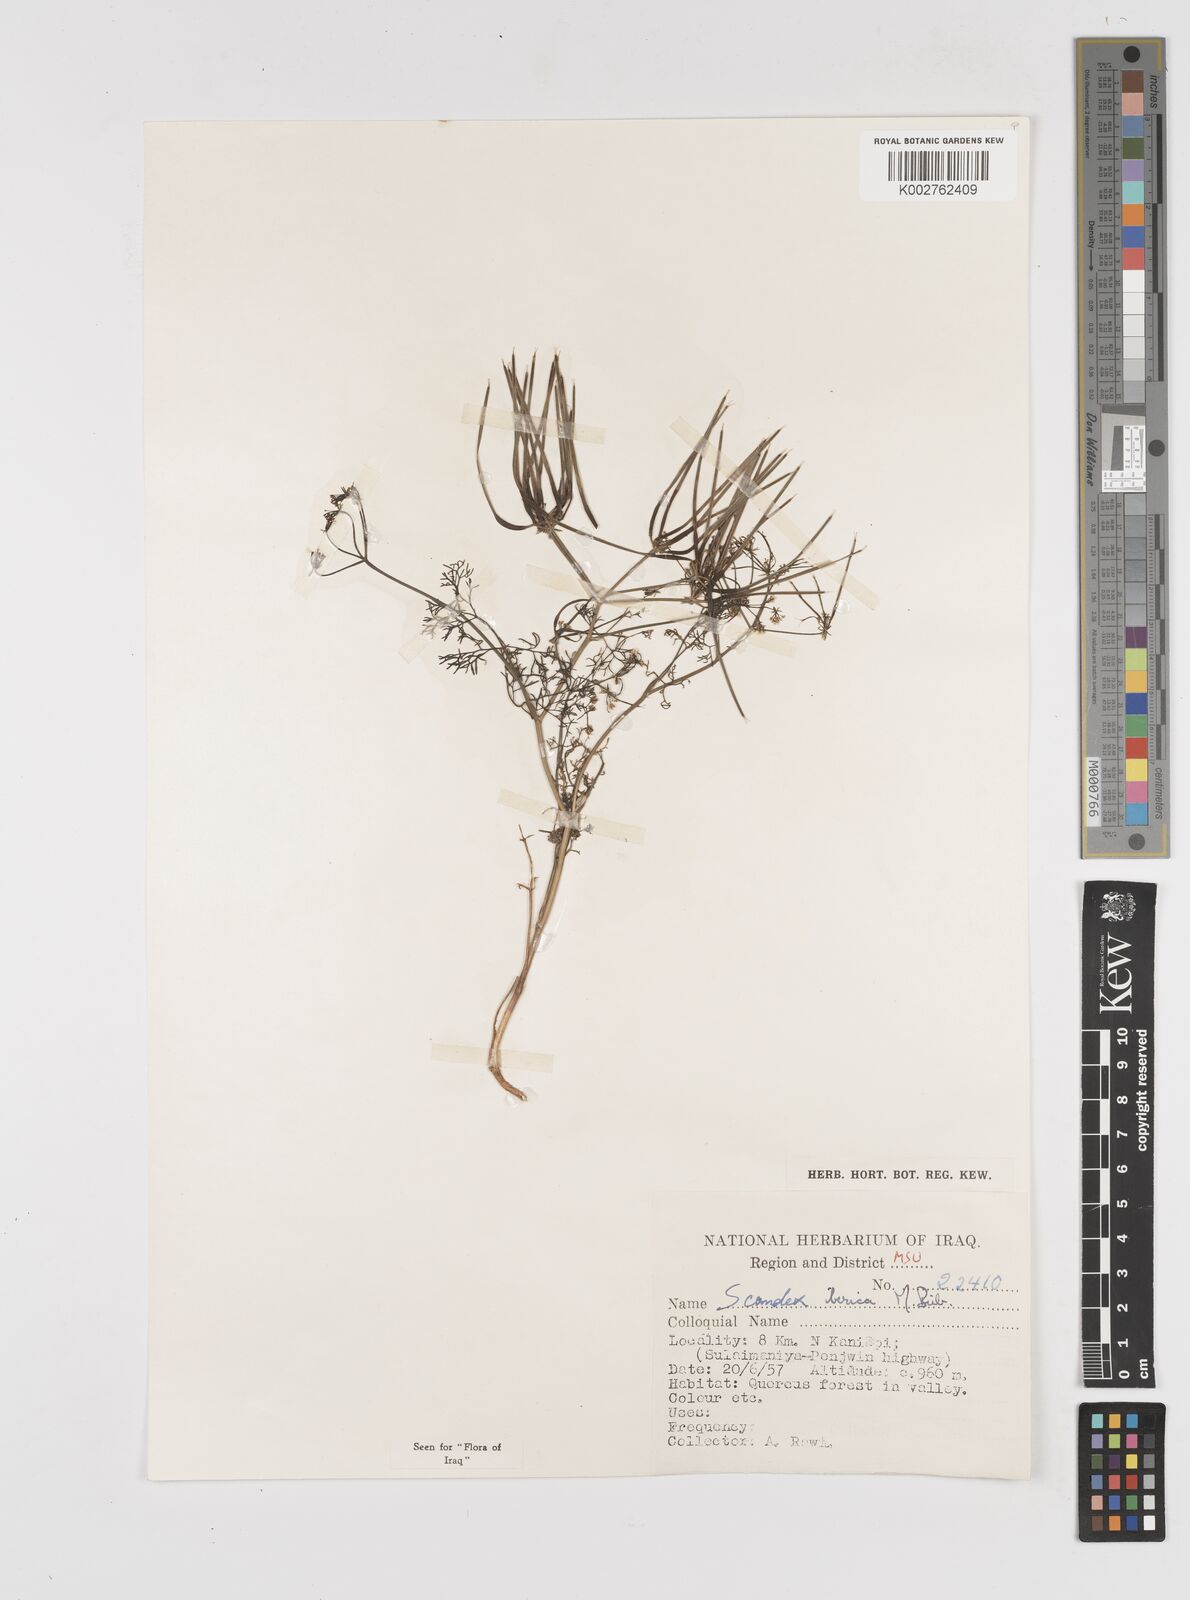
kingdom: Plantae
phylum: Tracheophyta
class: Magnoliopsida
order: Apiales
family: Apiaceae
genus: Scandix
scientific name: Scandix iberica
